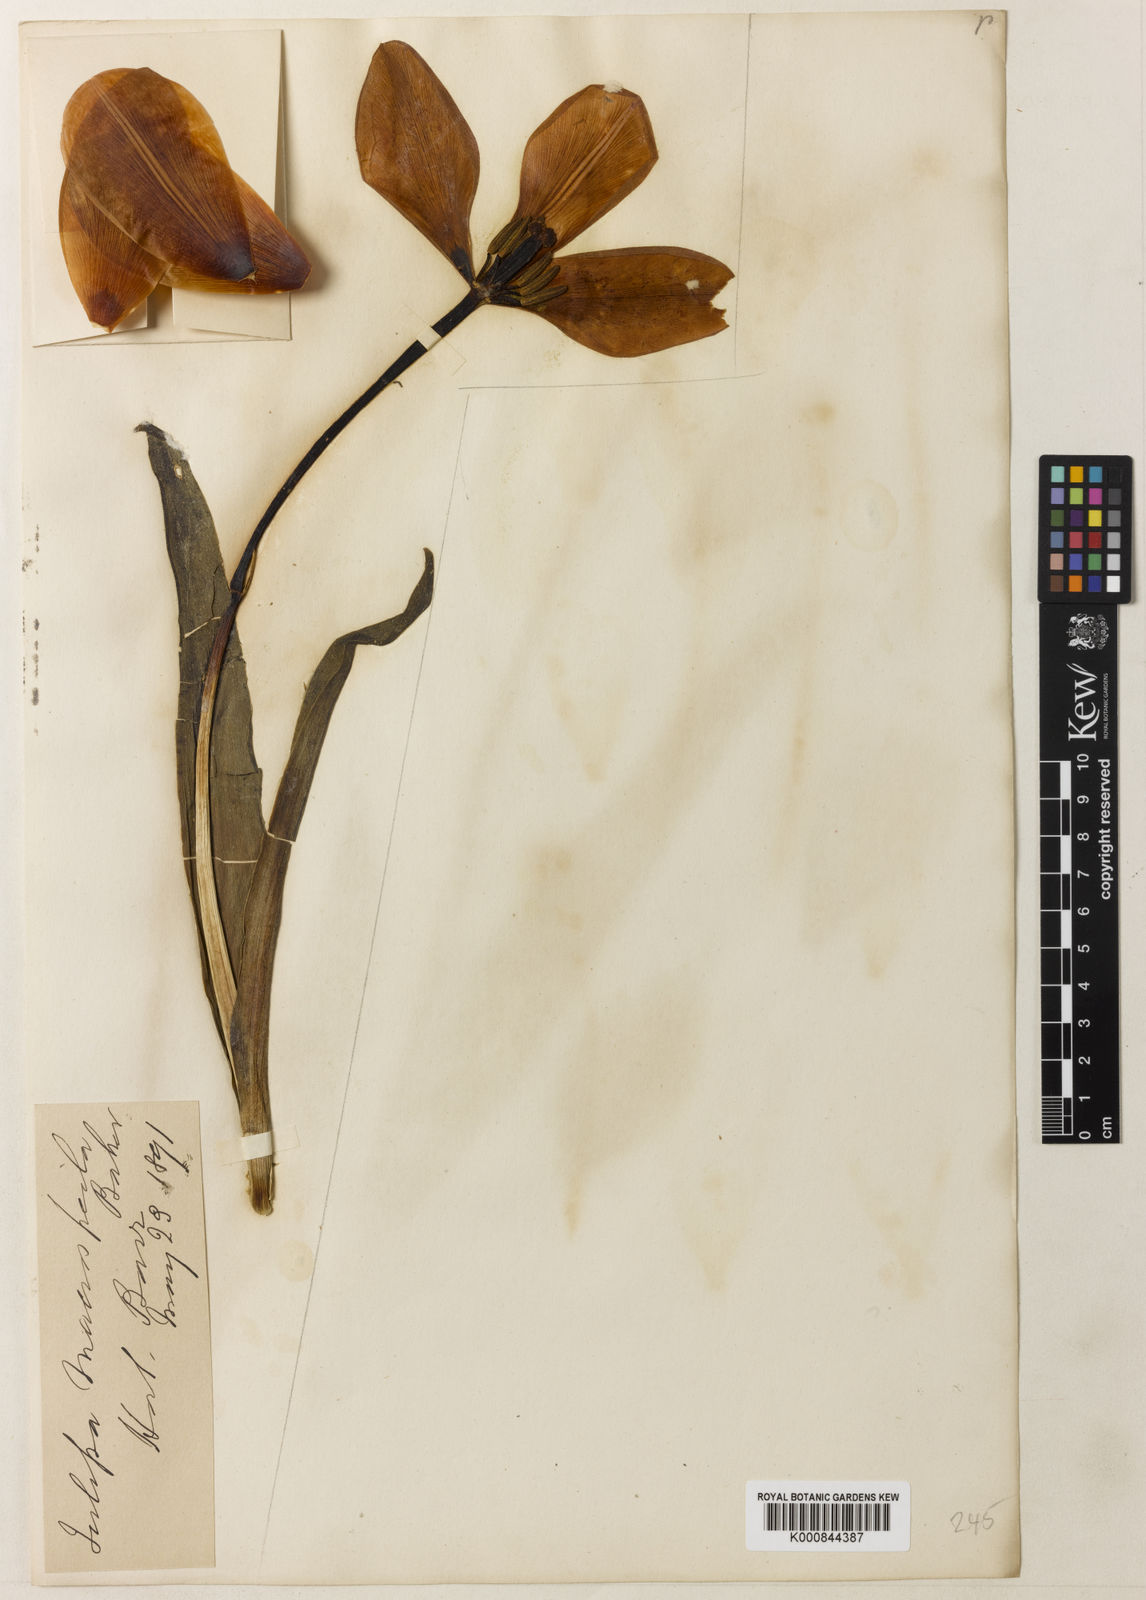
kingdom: Plantae
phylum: Tracheophyta
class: Liliopsida
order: Liliales
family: Liliaceae
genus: Tulipa
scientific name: Tulipa gesneriana
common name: Garden tulip
